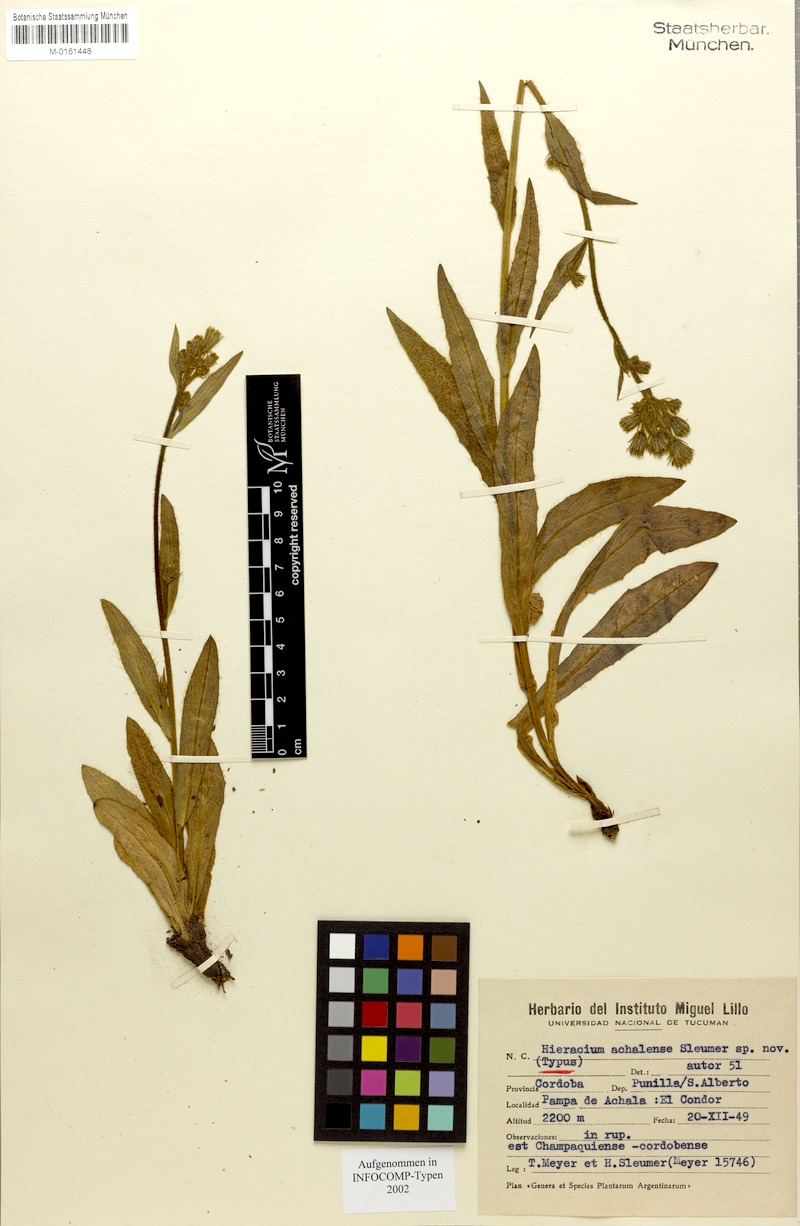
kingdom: Plantae
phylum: Tracheophyta
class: Magnoliopsida
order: Asterales
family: Asteraceae
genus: Hieracium
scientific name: Hieracium achalense
